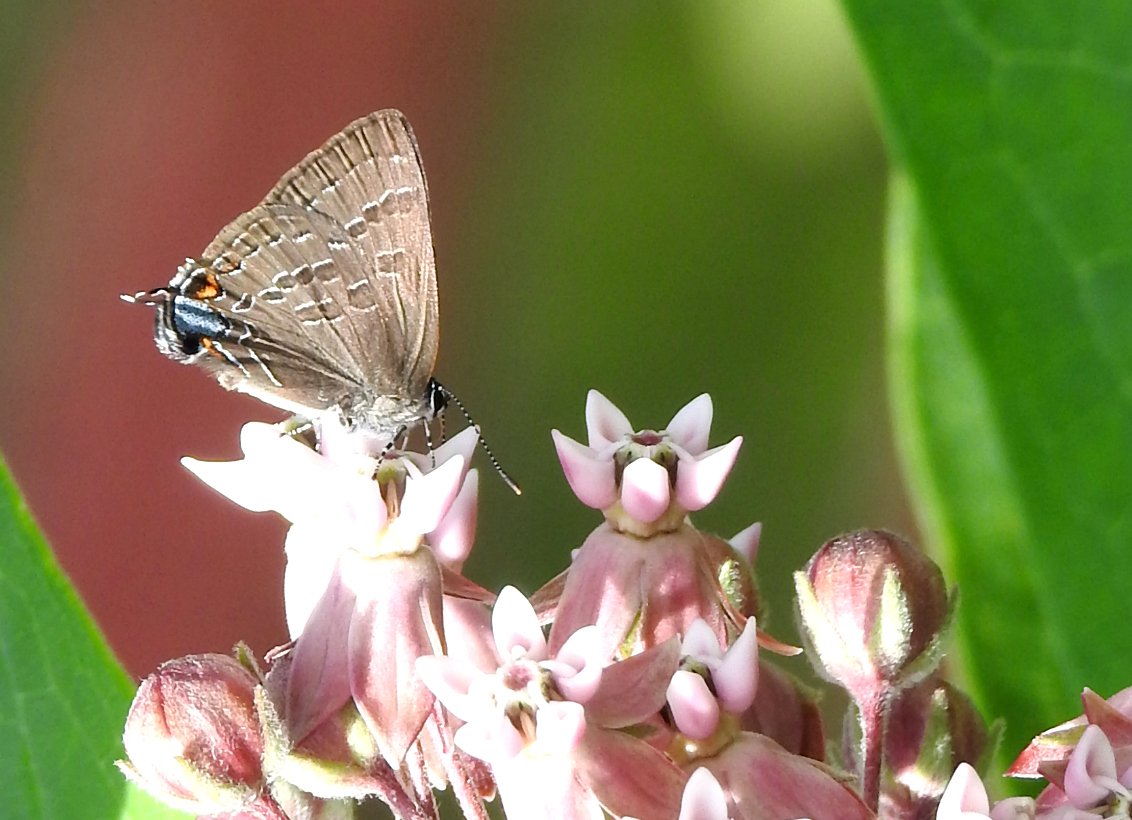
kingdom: Animalia
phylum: Arthropoda
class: Insecta
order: Lepidoptera
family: Lycaenidae
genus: Strymon
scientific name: Strymon caryaevorus
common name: Hickory Hairstreak
